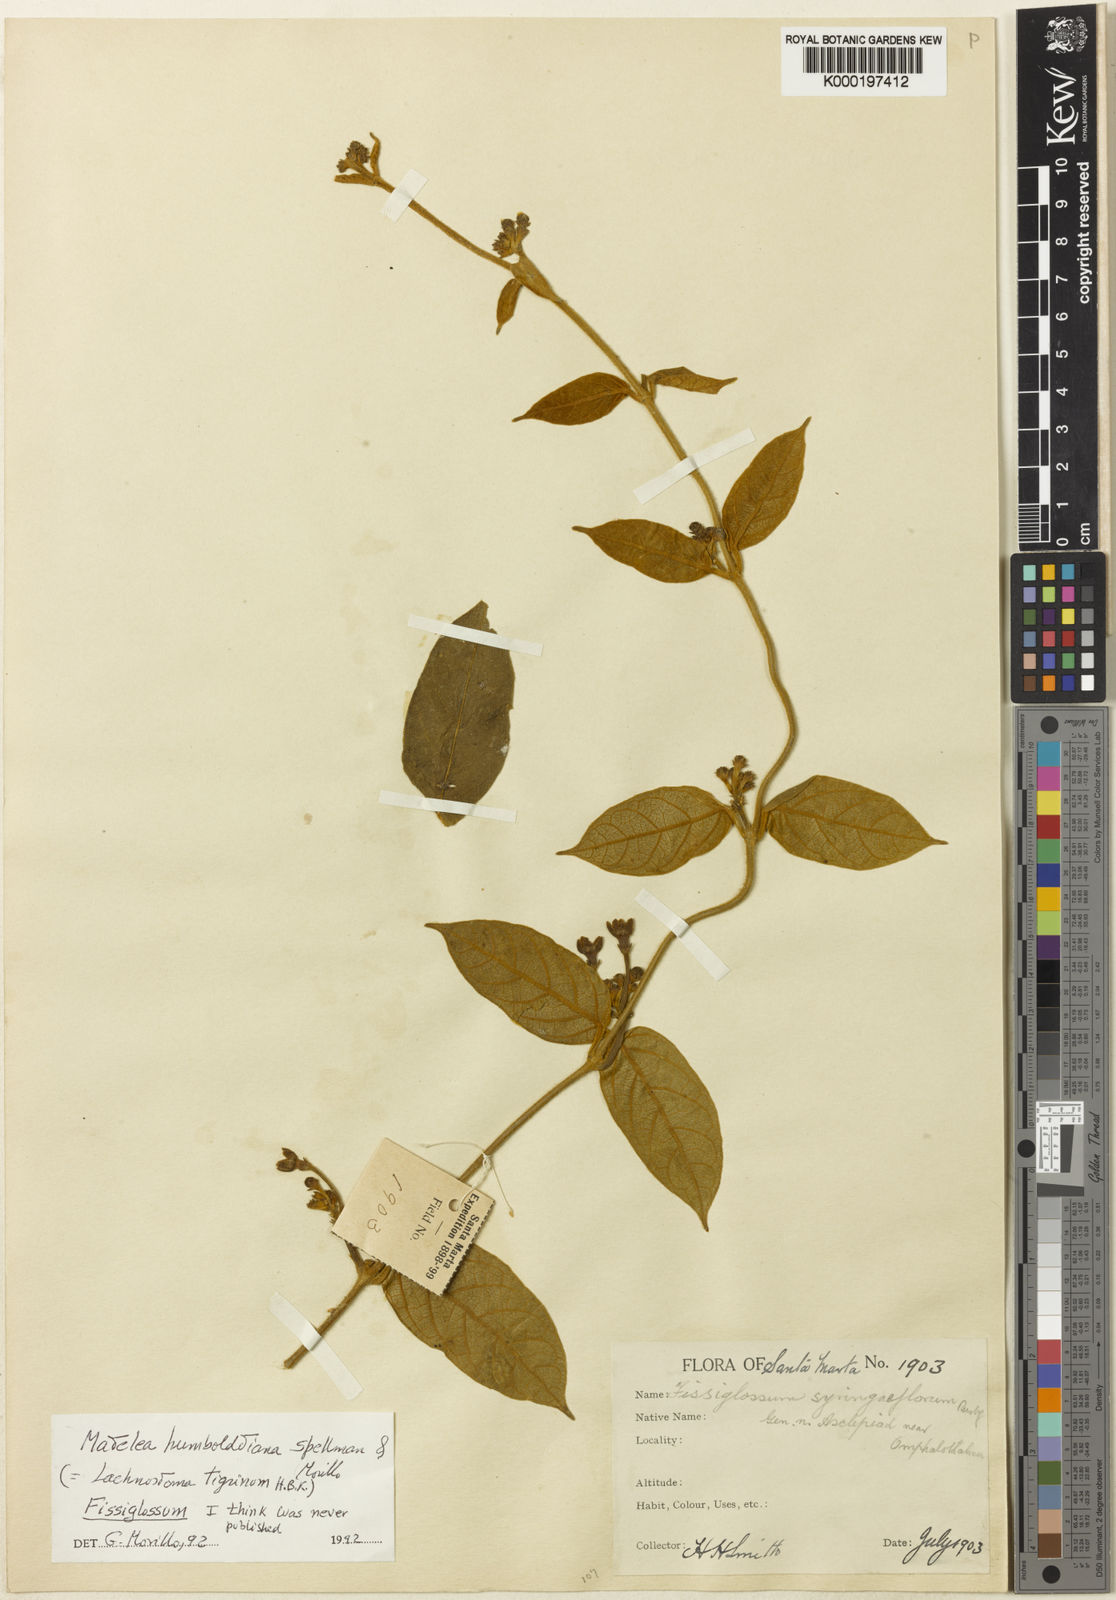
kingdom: Plantae
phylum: Tracheophyta
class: Magnoliopsida
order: Gentianales
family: Apocynaceae
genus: Lachnostoma
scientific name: Lachnostoma tigrinum
